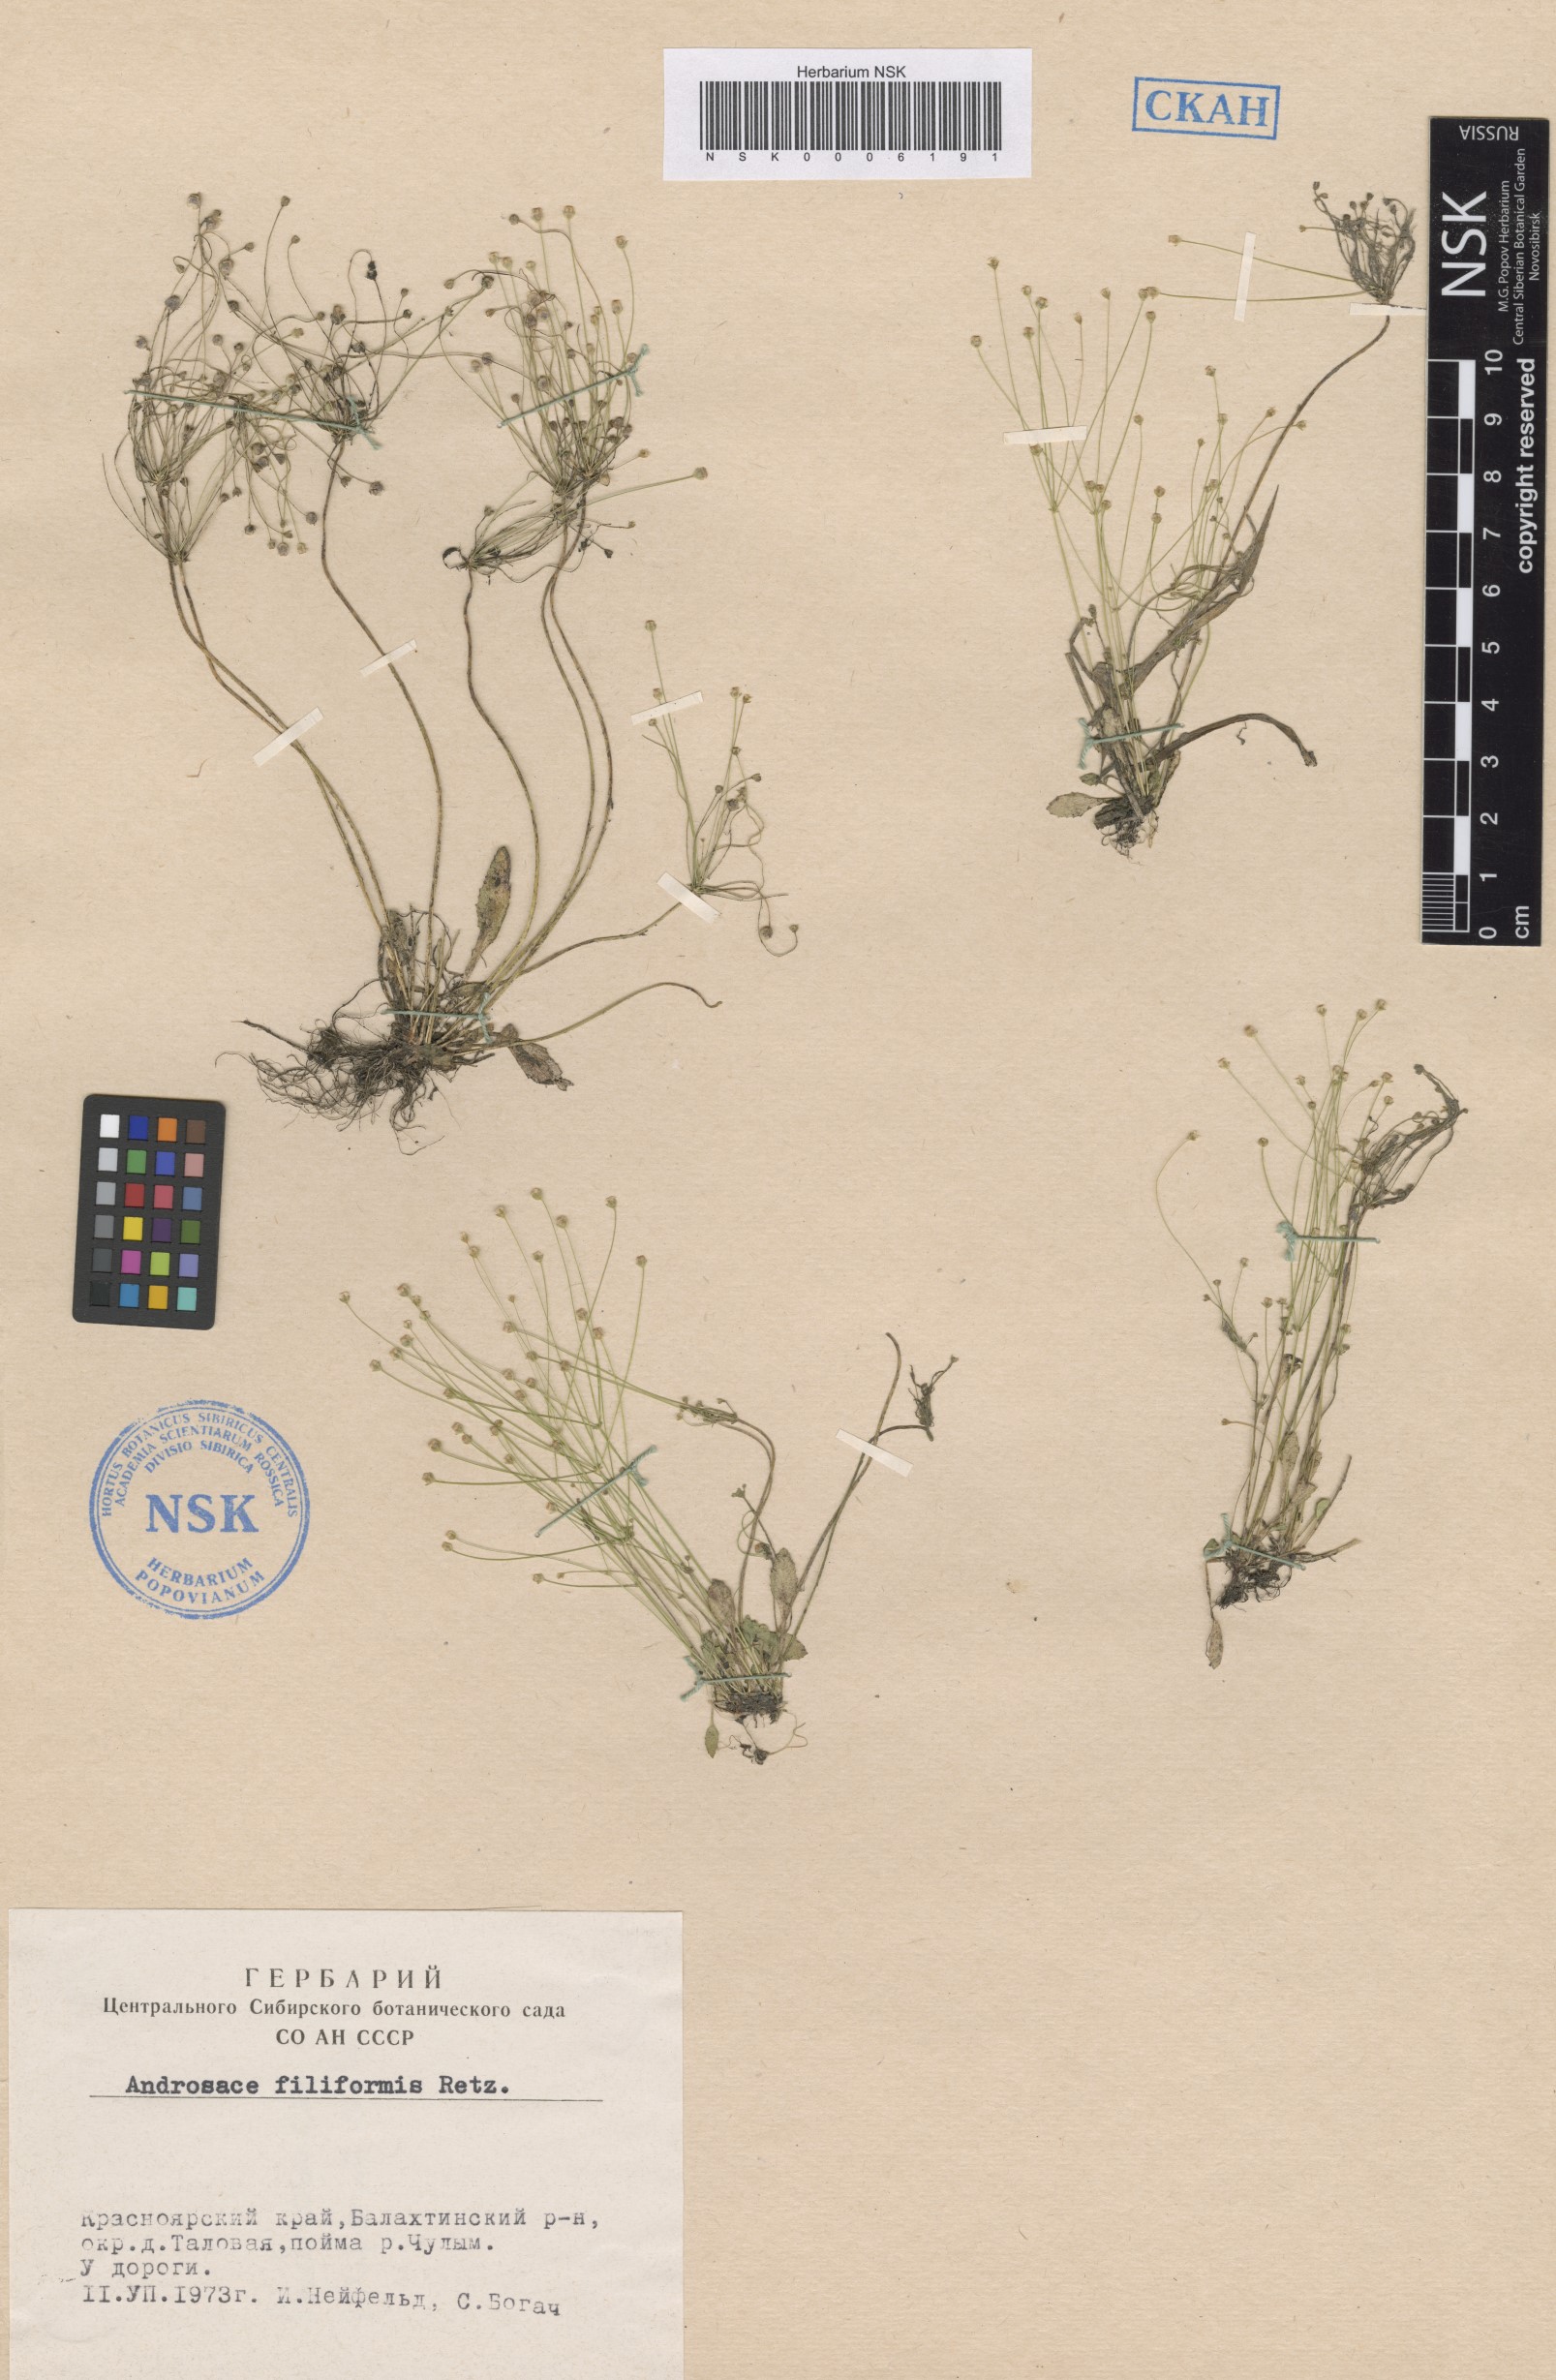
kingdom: Plantae
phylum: Tracheophyta
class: Magnoliopsida
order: Ericales
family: Primulaceae
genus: Androsace
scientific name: Androsace filiformis
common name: Filiform rock jasmine
